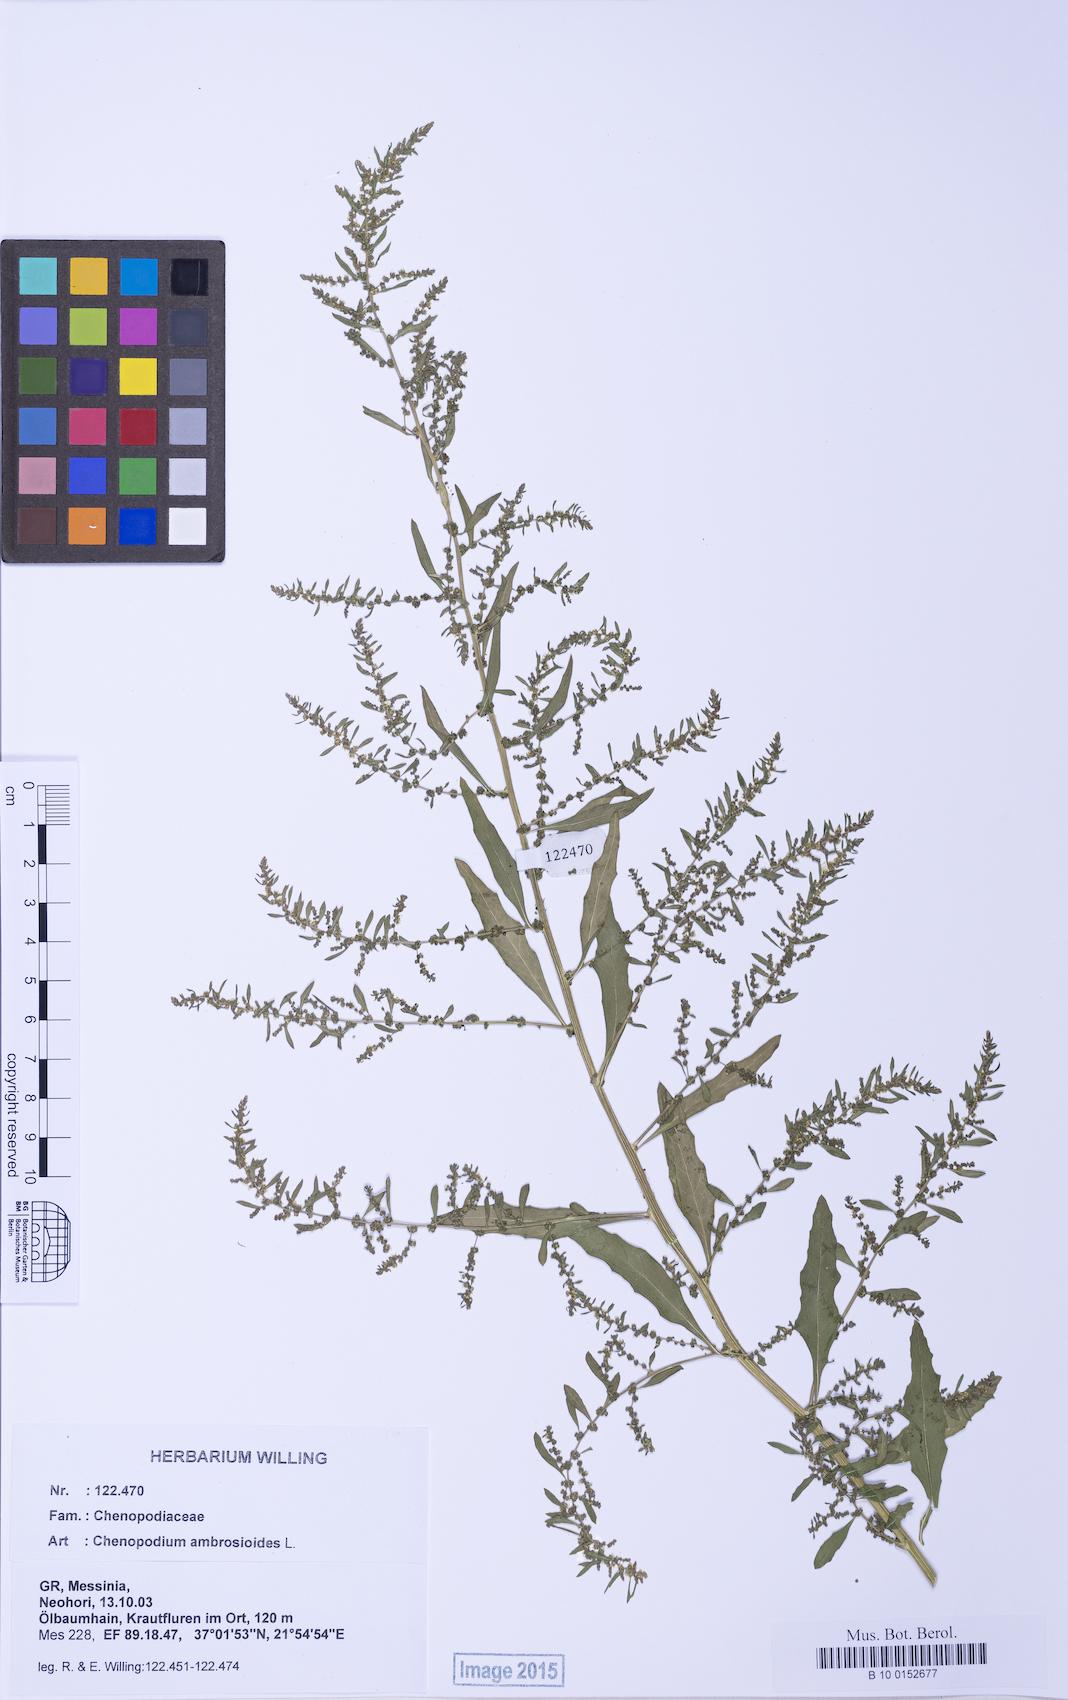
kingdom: Plantae
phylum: Tracheophyta
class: Magnoliopsida
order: Caryophyllales
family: Amaranthaceae
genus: Dysphania
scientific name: Dysphania ambrosioides
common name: Wormseed
